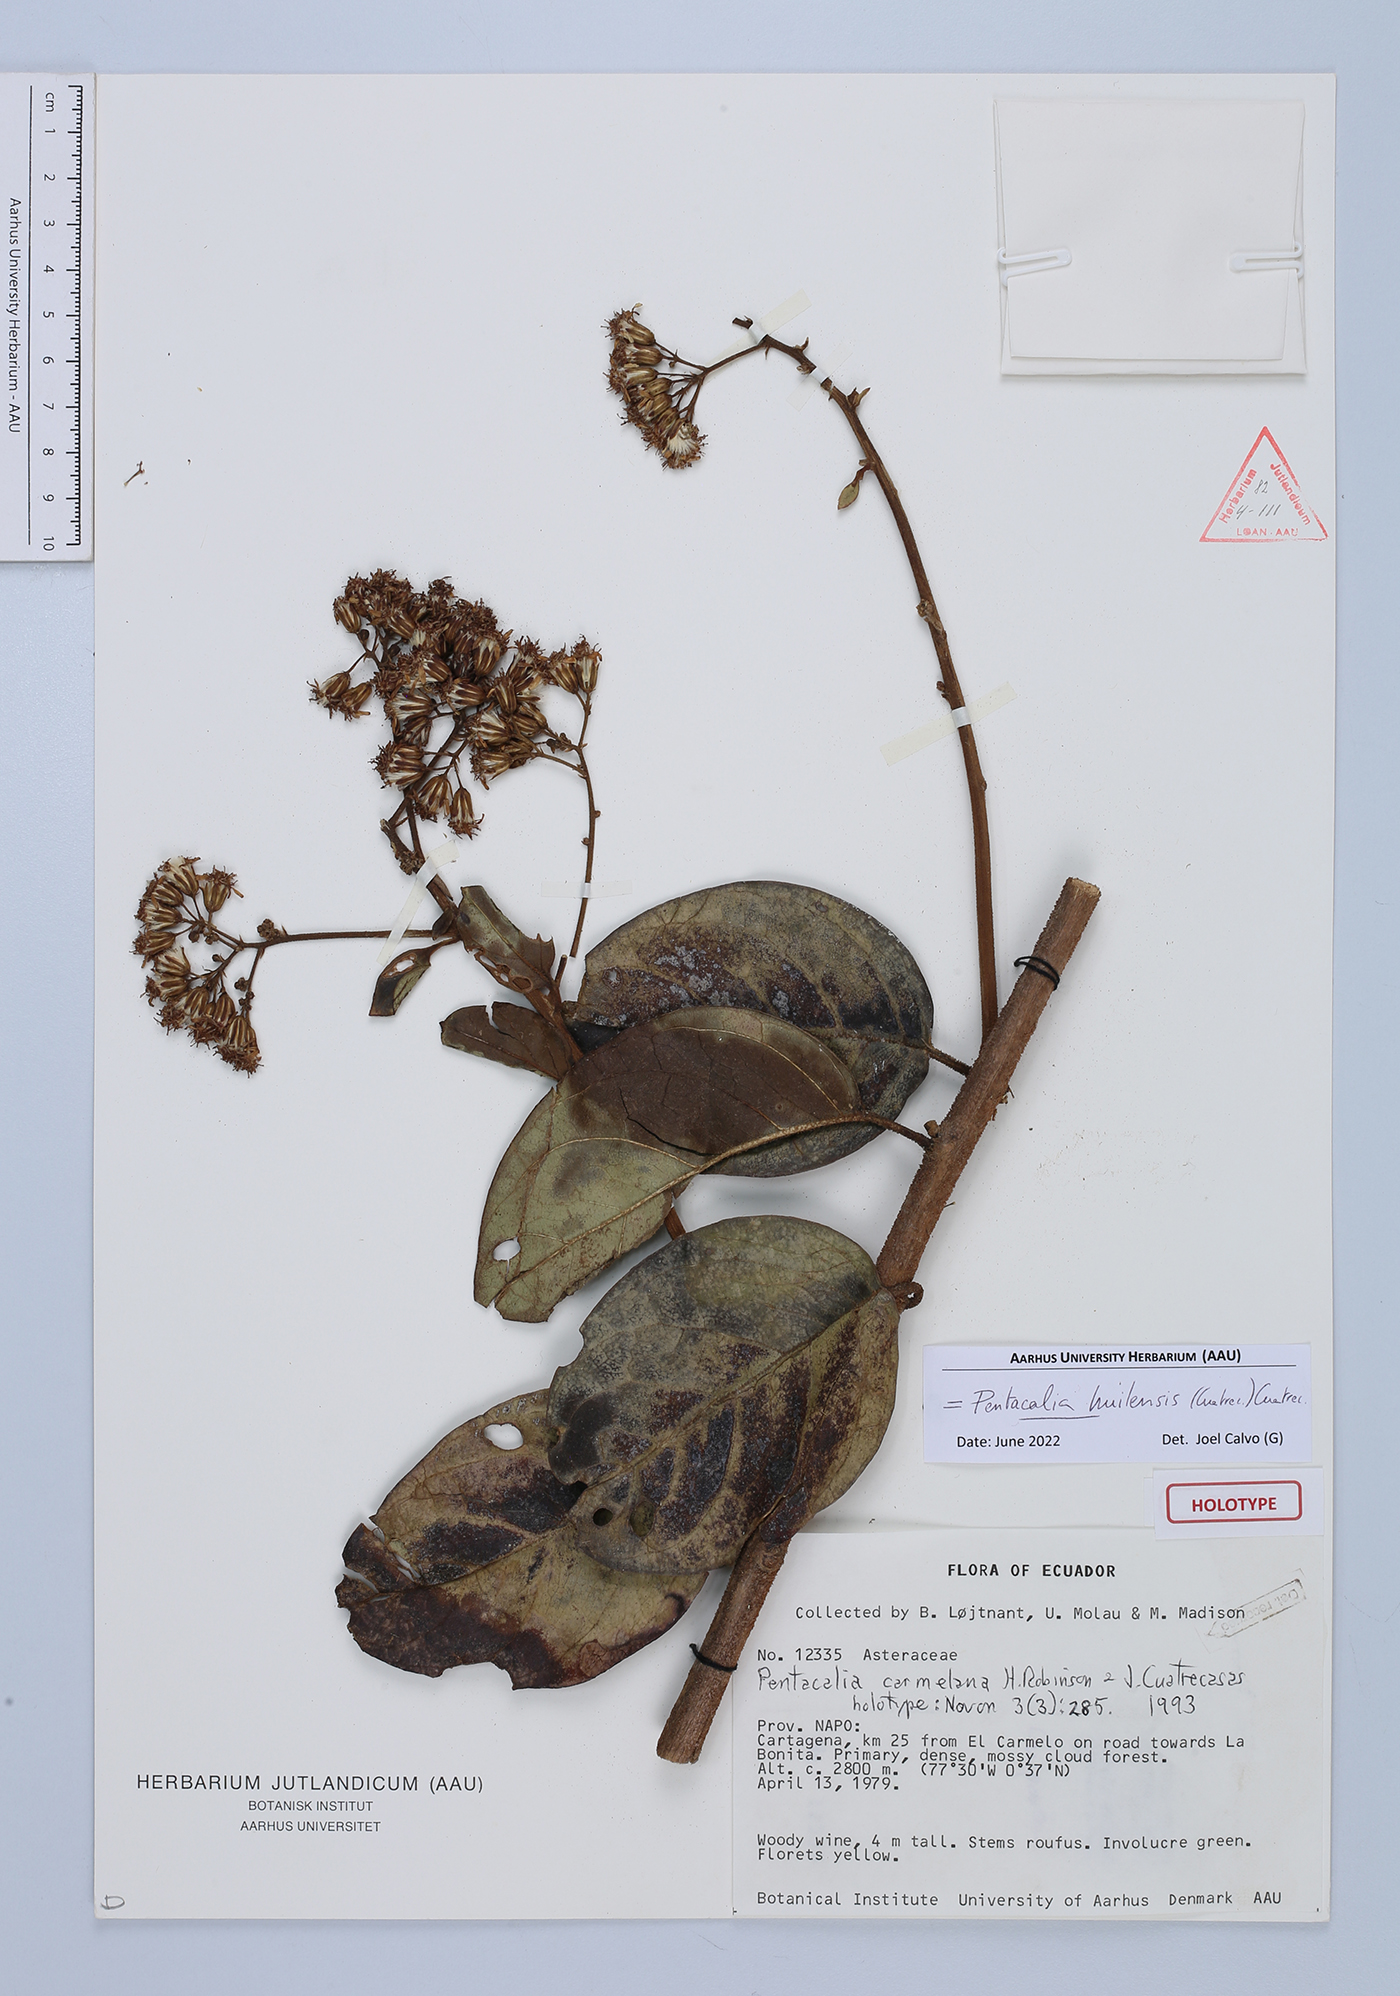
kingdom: Plantae
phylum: Tracheophyta
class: Magnoliopsida
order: Asterales
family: Asteraceae
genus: Pentacalia
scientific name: Pentacalia huilensis
